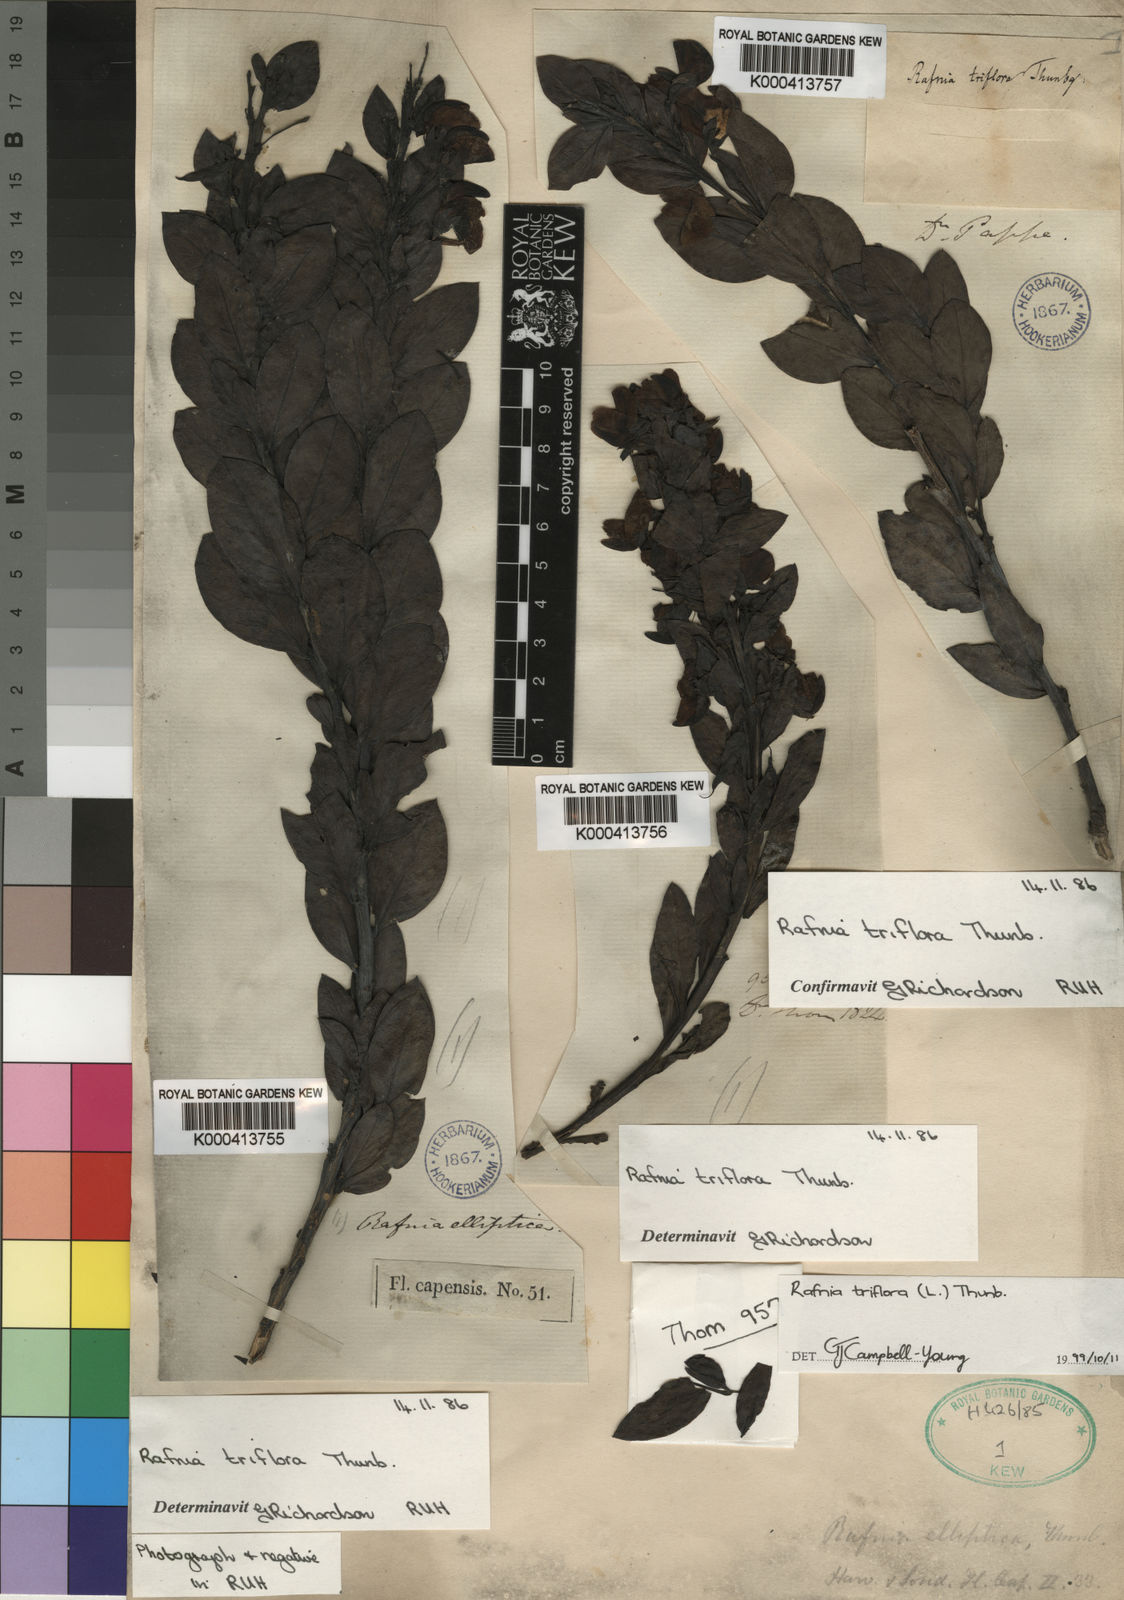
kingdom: Plantae
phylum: Tracheophyta
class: Magnoliopsida
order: Fabales
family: Fabaceae
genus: Rafnia
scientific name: Rafnia triflora
